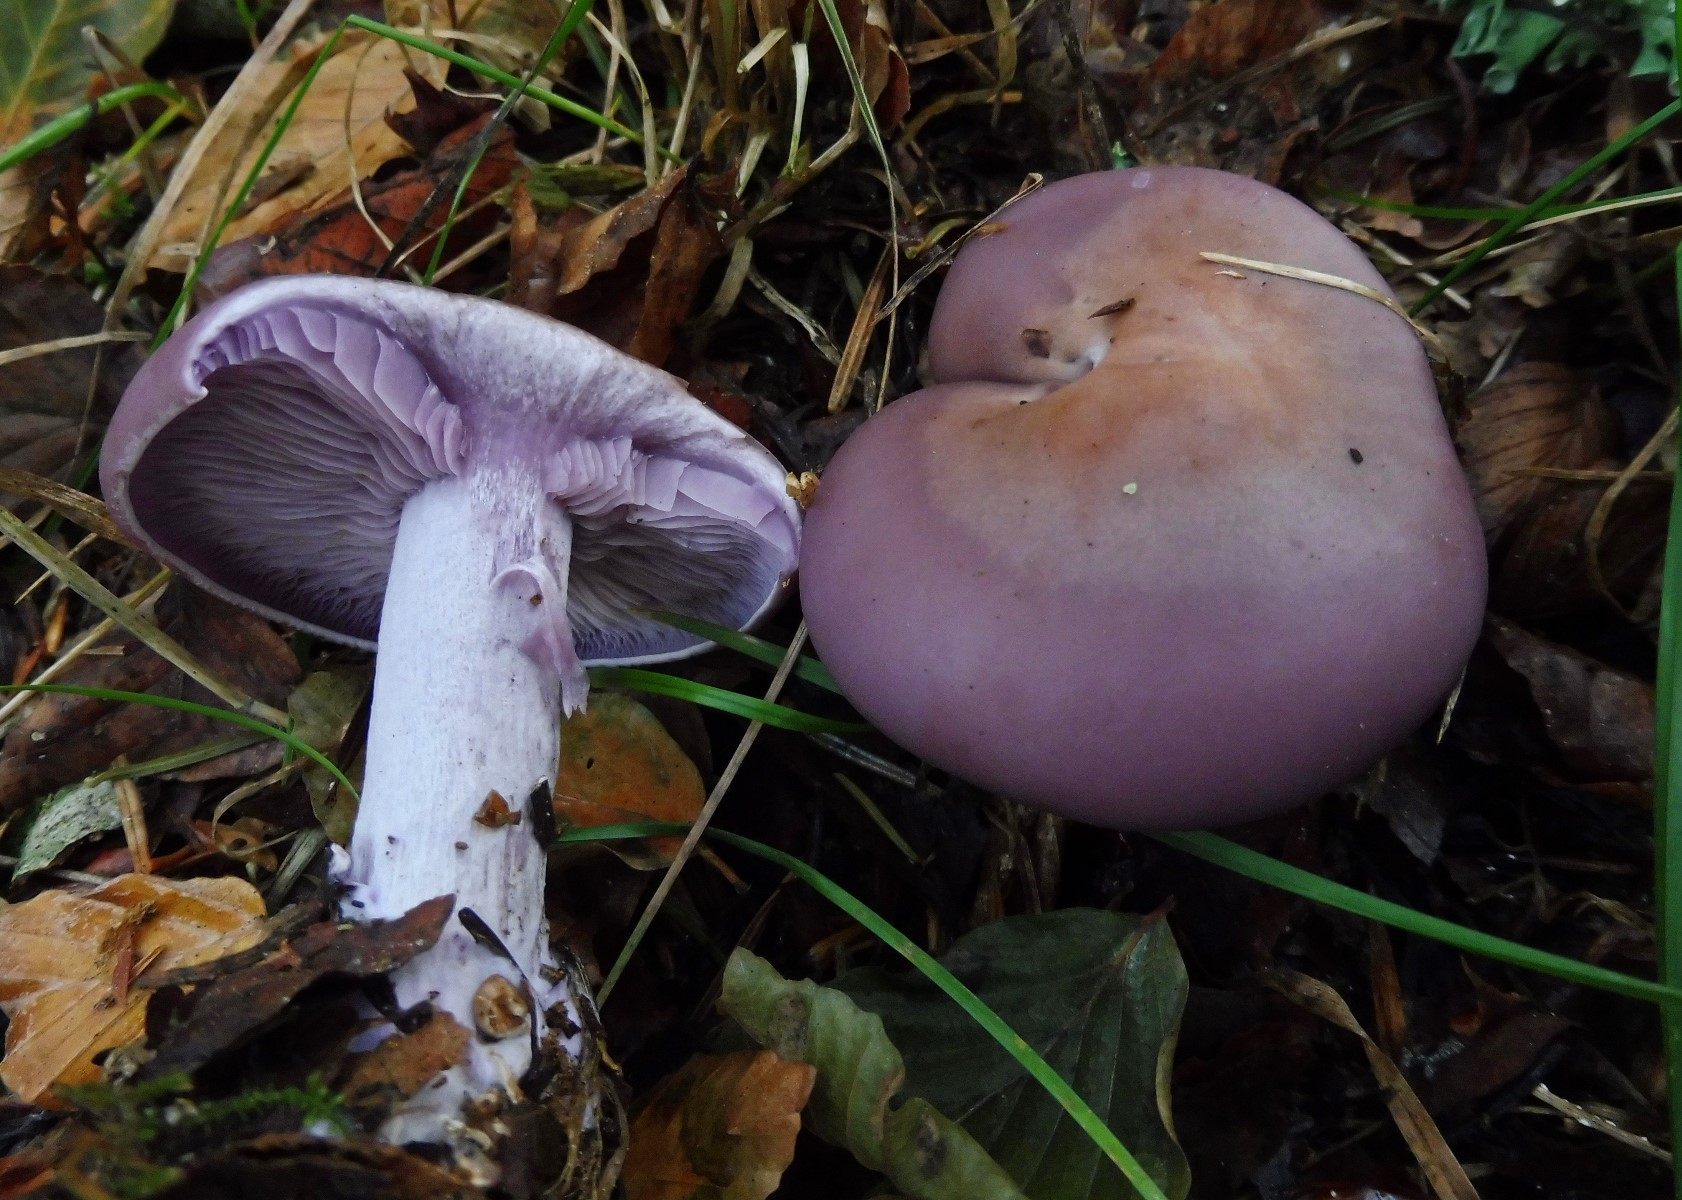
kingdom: Fungi
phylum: Basidiomycota
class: Agaricomycetes
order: Agaricales
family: Tricholomataceae
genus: Lepista
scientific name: Lepista nuda
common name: violet hekseringshat
